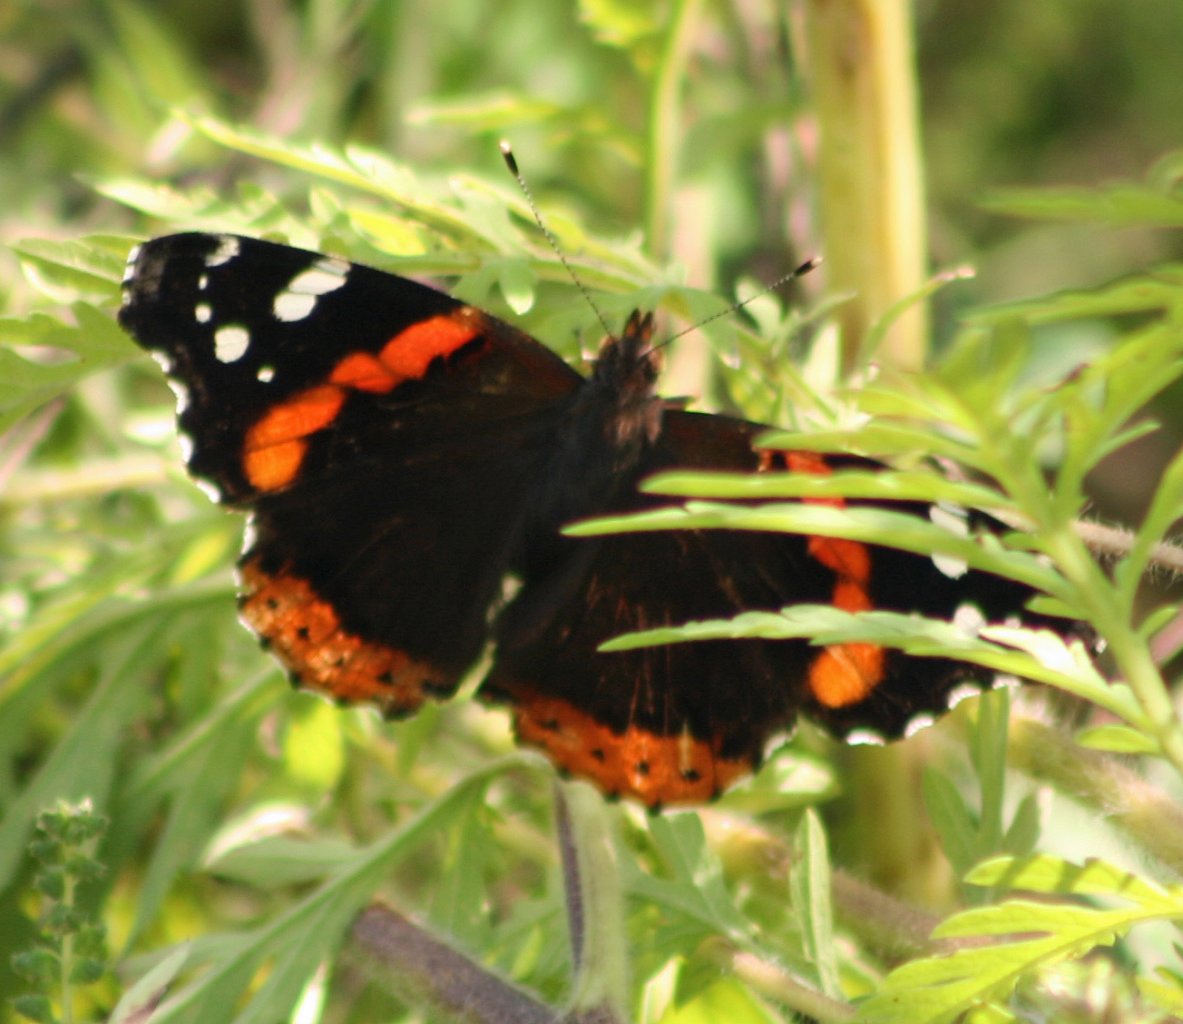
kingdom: Animalia
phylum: Arthropoda
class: Insecta
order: Lepidoptera
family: Nymphalidae
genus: Vanessa
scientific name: Vanessa atalanta
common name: Red Admiral
